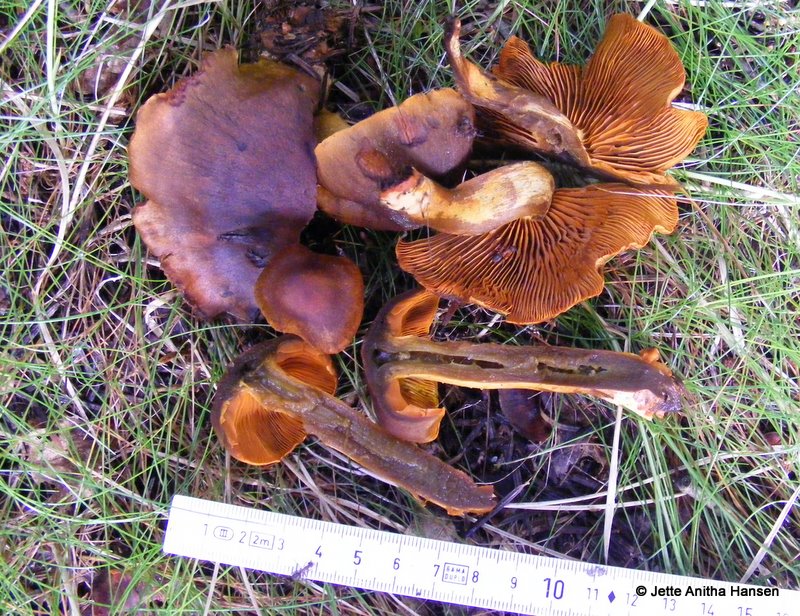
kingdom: Fungi
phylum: Basidiomycota
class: Agaricomycetes
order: Agaricales
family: Cortinariaceae
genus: Cortinarius
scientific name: Cortinarius malicorius
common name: grønkødet slørhat
